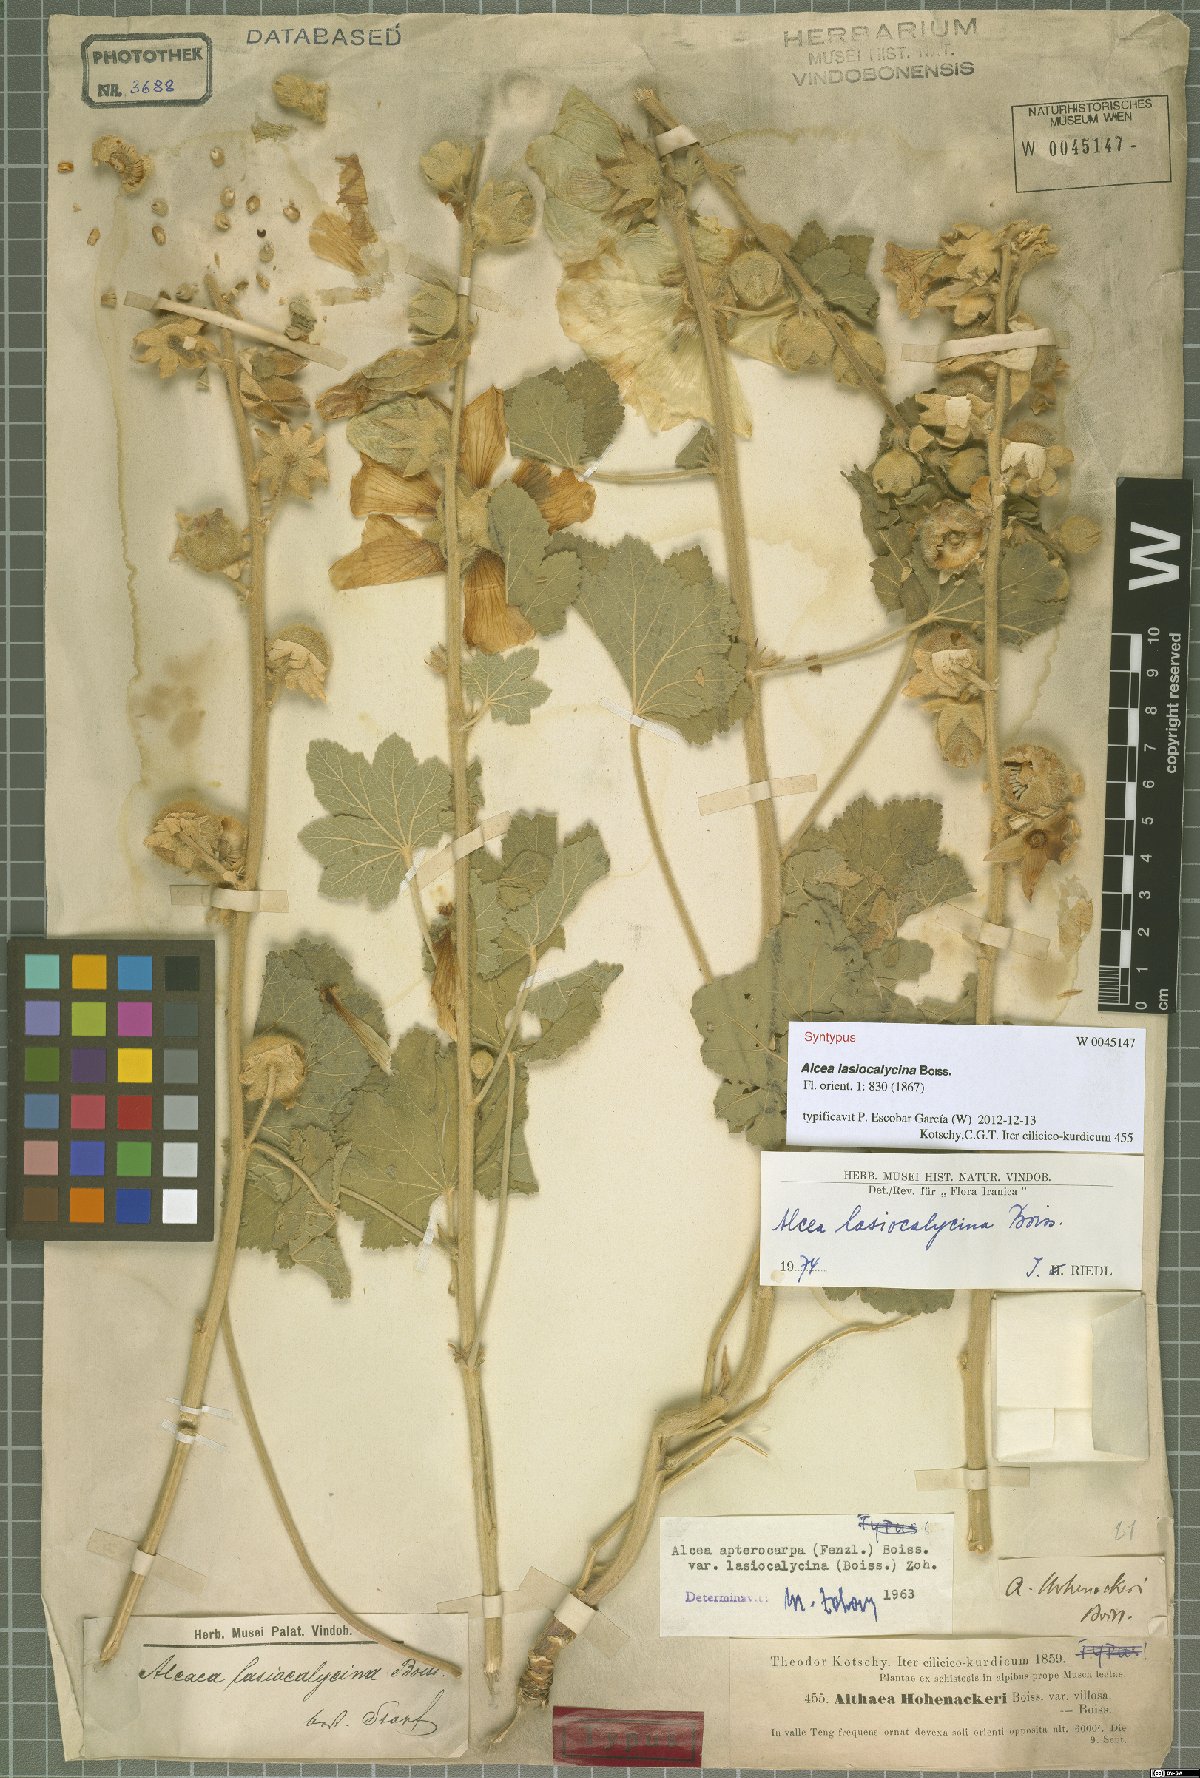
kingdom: Plantae
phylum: Tracheophyta
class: Magnoliopsida
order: Malvales
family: Malvaceae
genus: Alcea
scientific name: Alcea lasiocalycina
